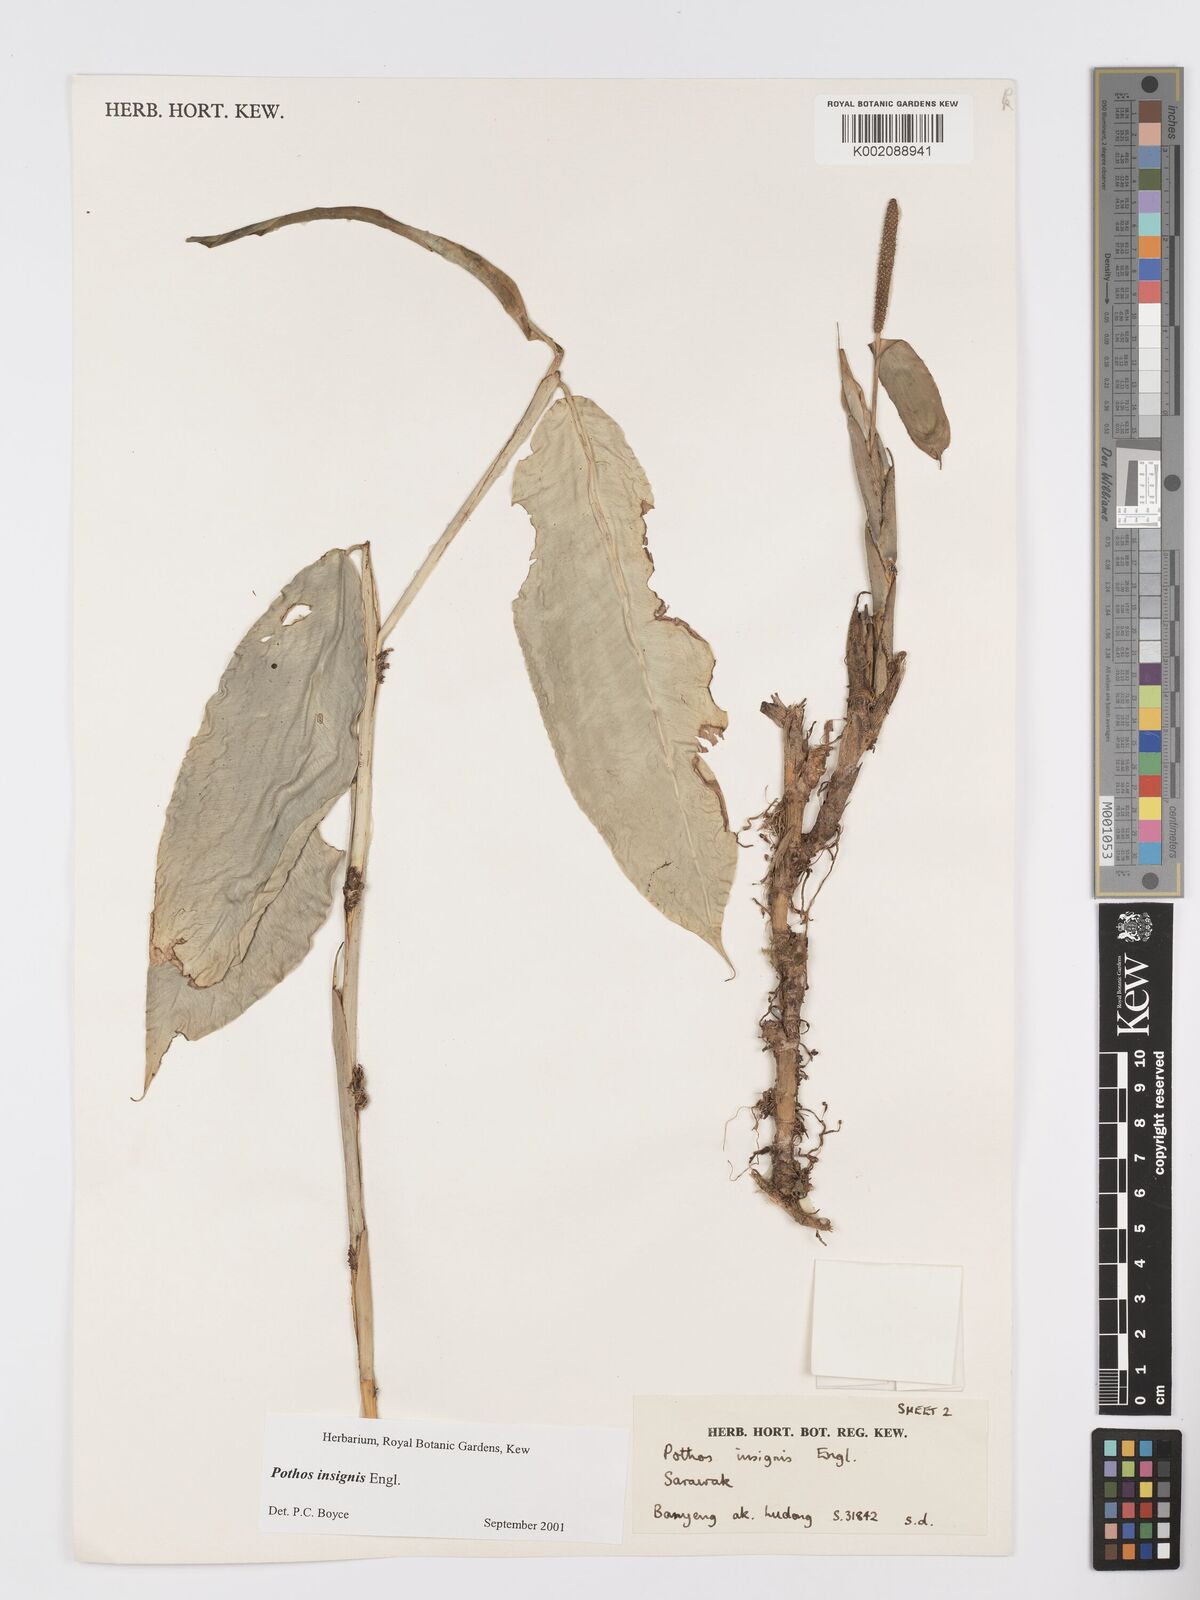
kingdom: Plantae
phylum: Tracheophyta
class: Liliopsida
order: Alismatales
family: Araceae
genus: Pothos
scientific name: Pothos insignis
